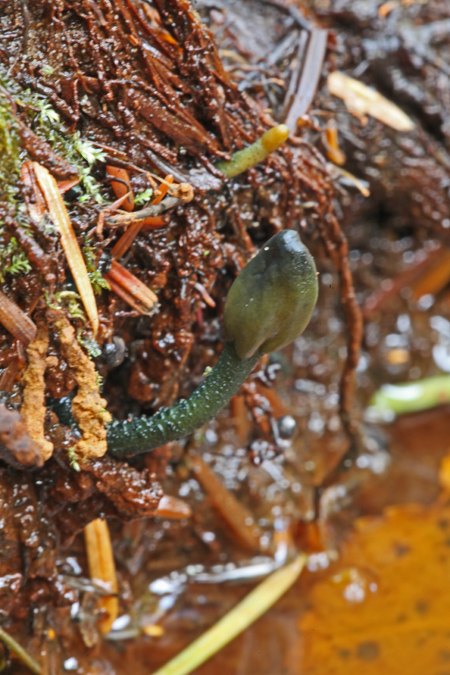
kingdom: Fungi
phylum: Ascomycota
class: Leotiomycetes
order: Leotiales
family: Leotiaceae
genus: Microglossum
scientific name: Microglossum viride
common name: grøn farvetunge
